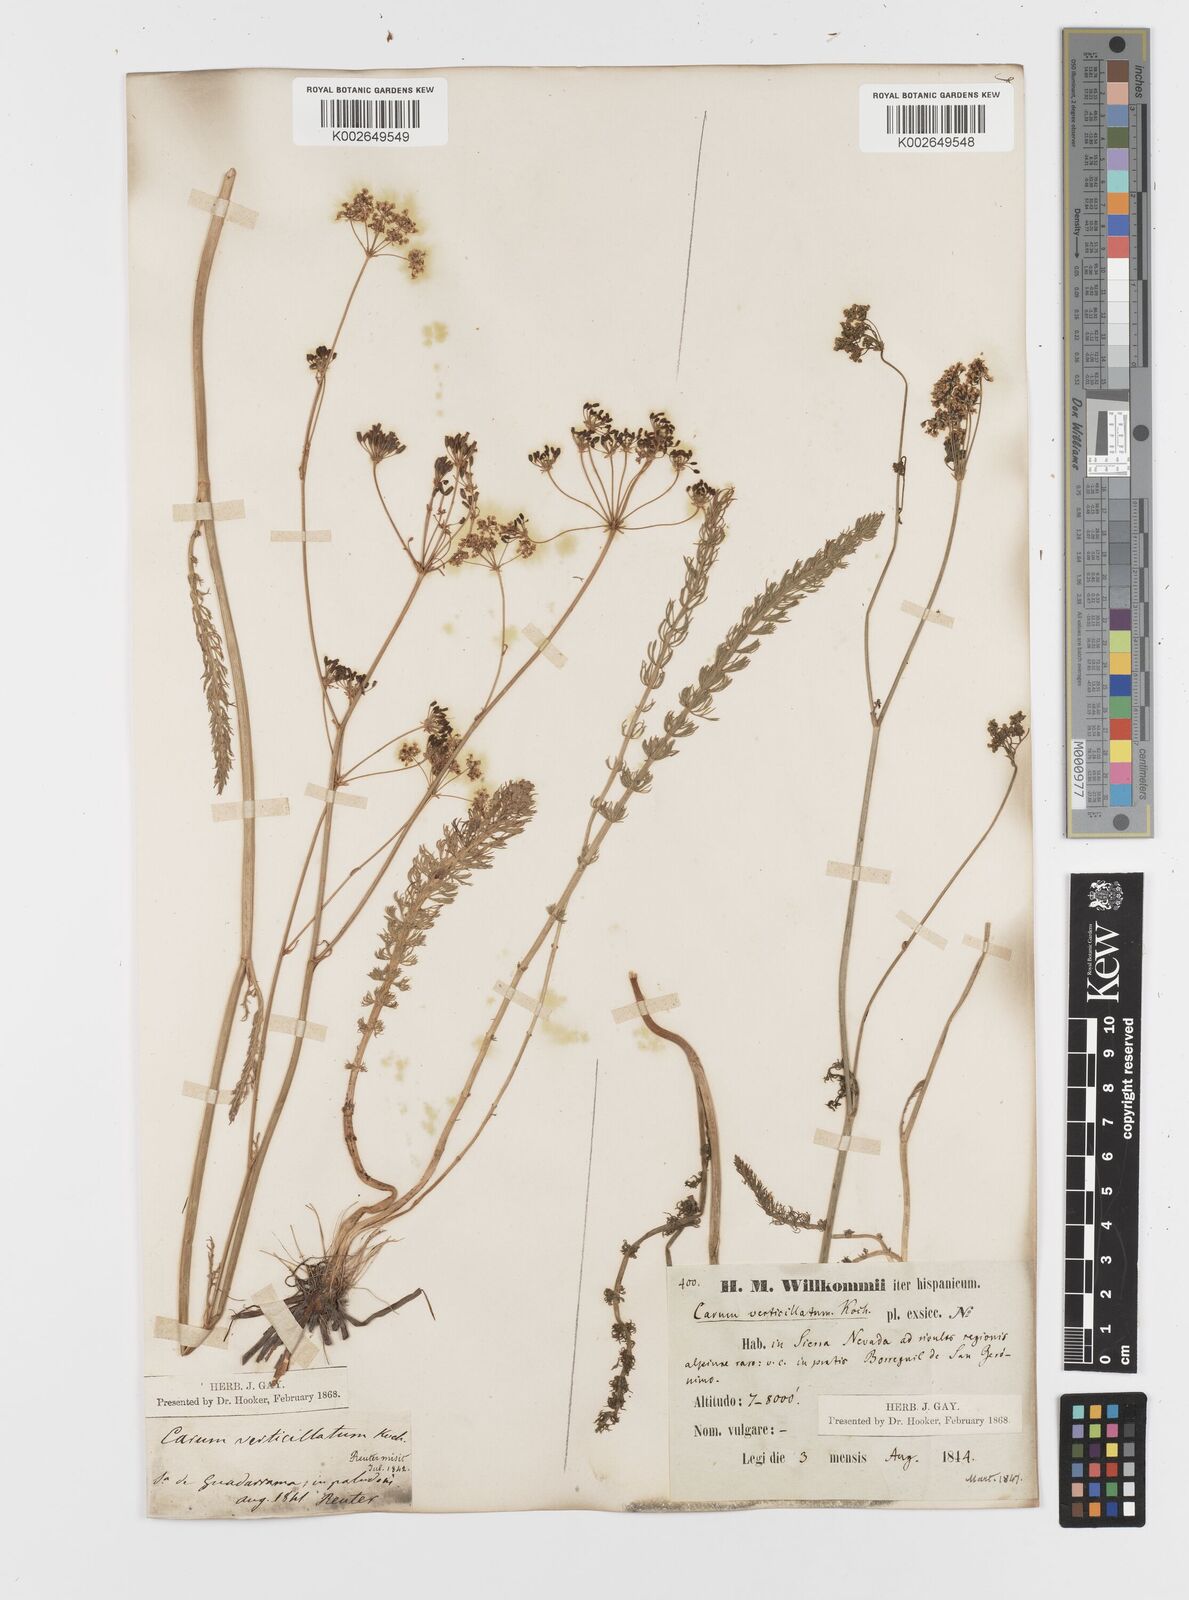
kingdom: Plantae
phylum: Tracheophyta
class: Magnoliopsida
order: Apiales
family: Apiaceae
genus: Trocdaris
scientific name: Trocdaris verticillatum
